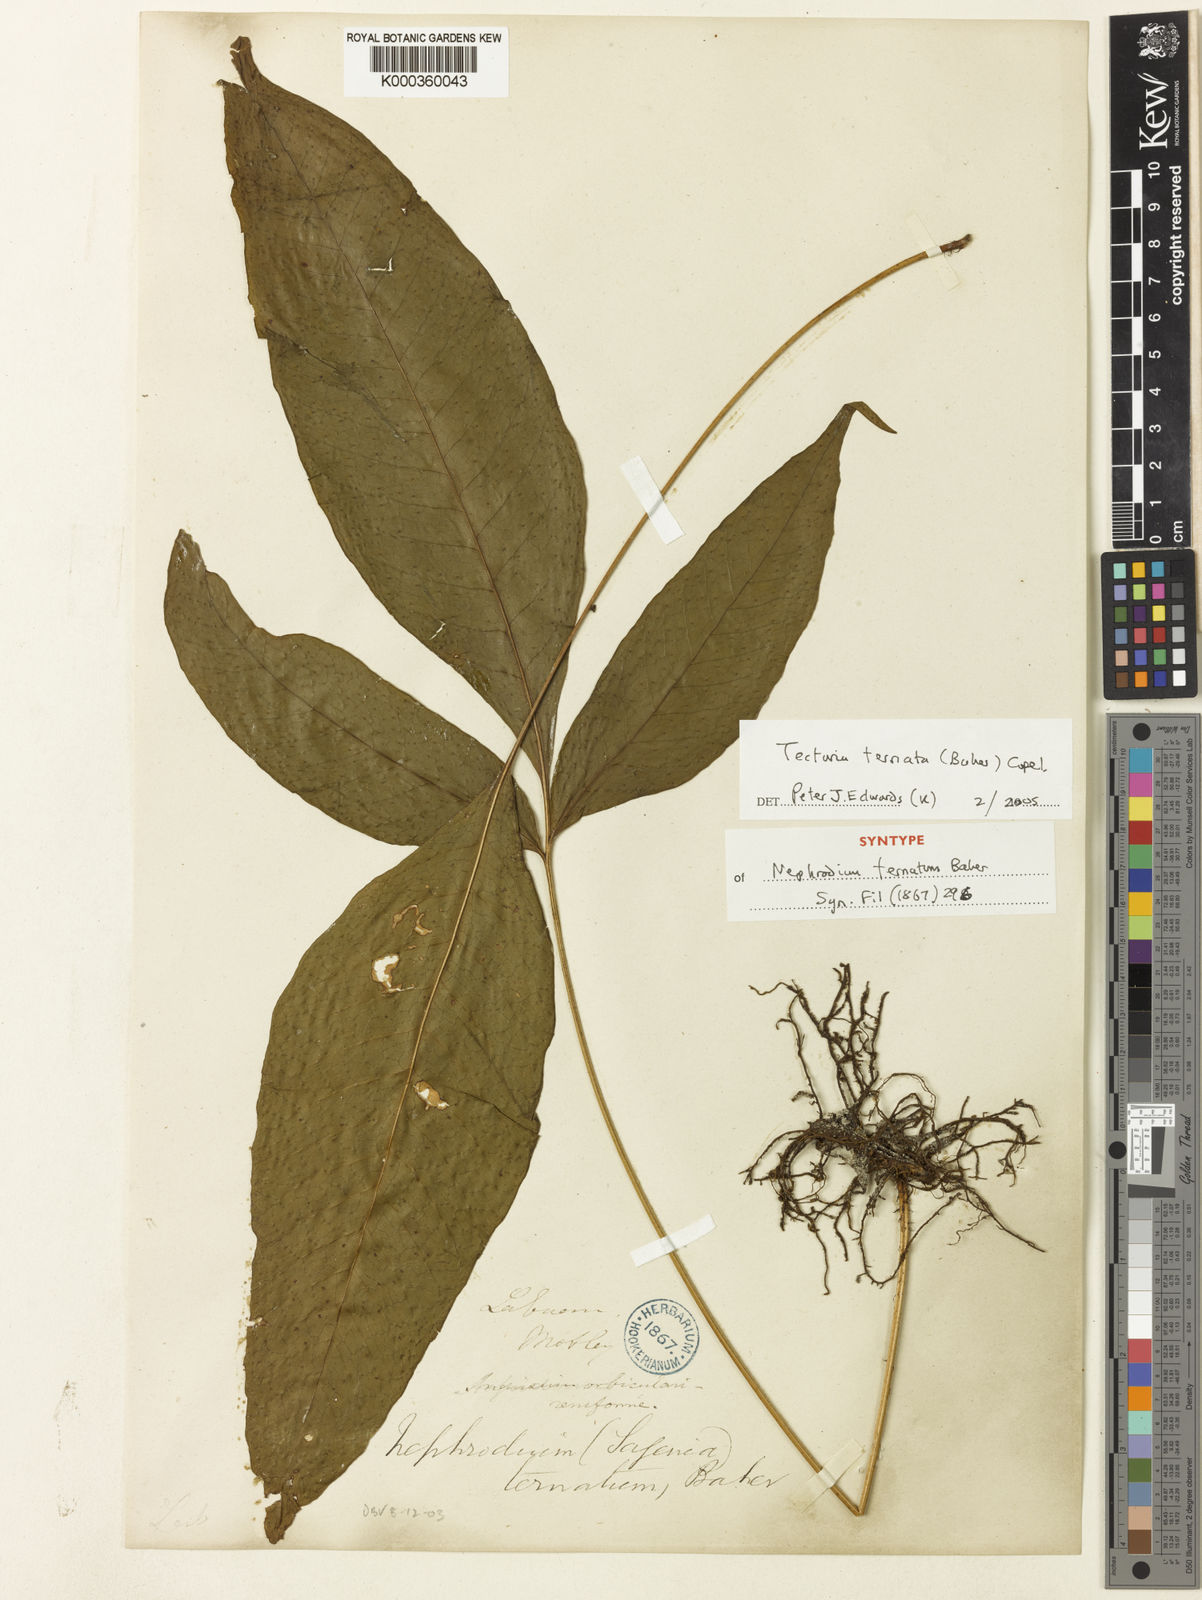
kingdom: Plantae
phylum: Tracheophyta
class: Polypodiopsida
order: Polypodiales
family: Tectariaceae
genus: Polydictyum
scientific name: Polydictyum ternatum
